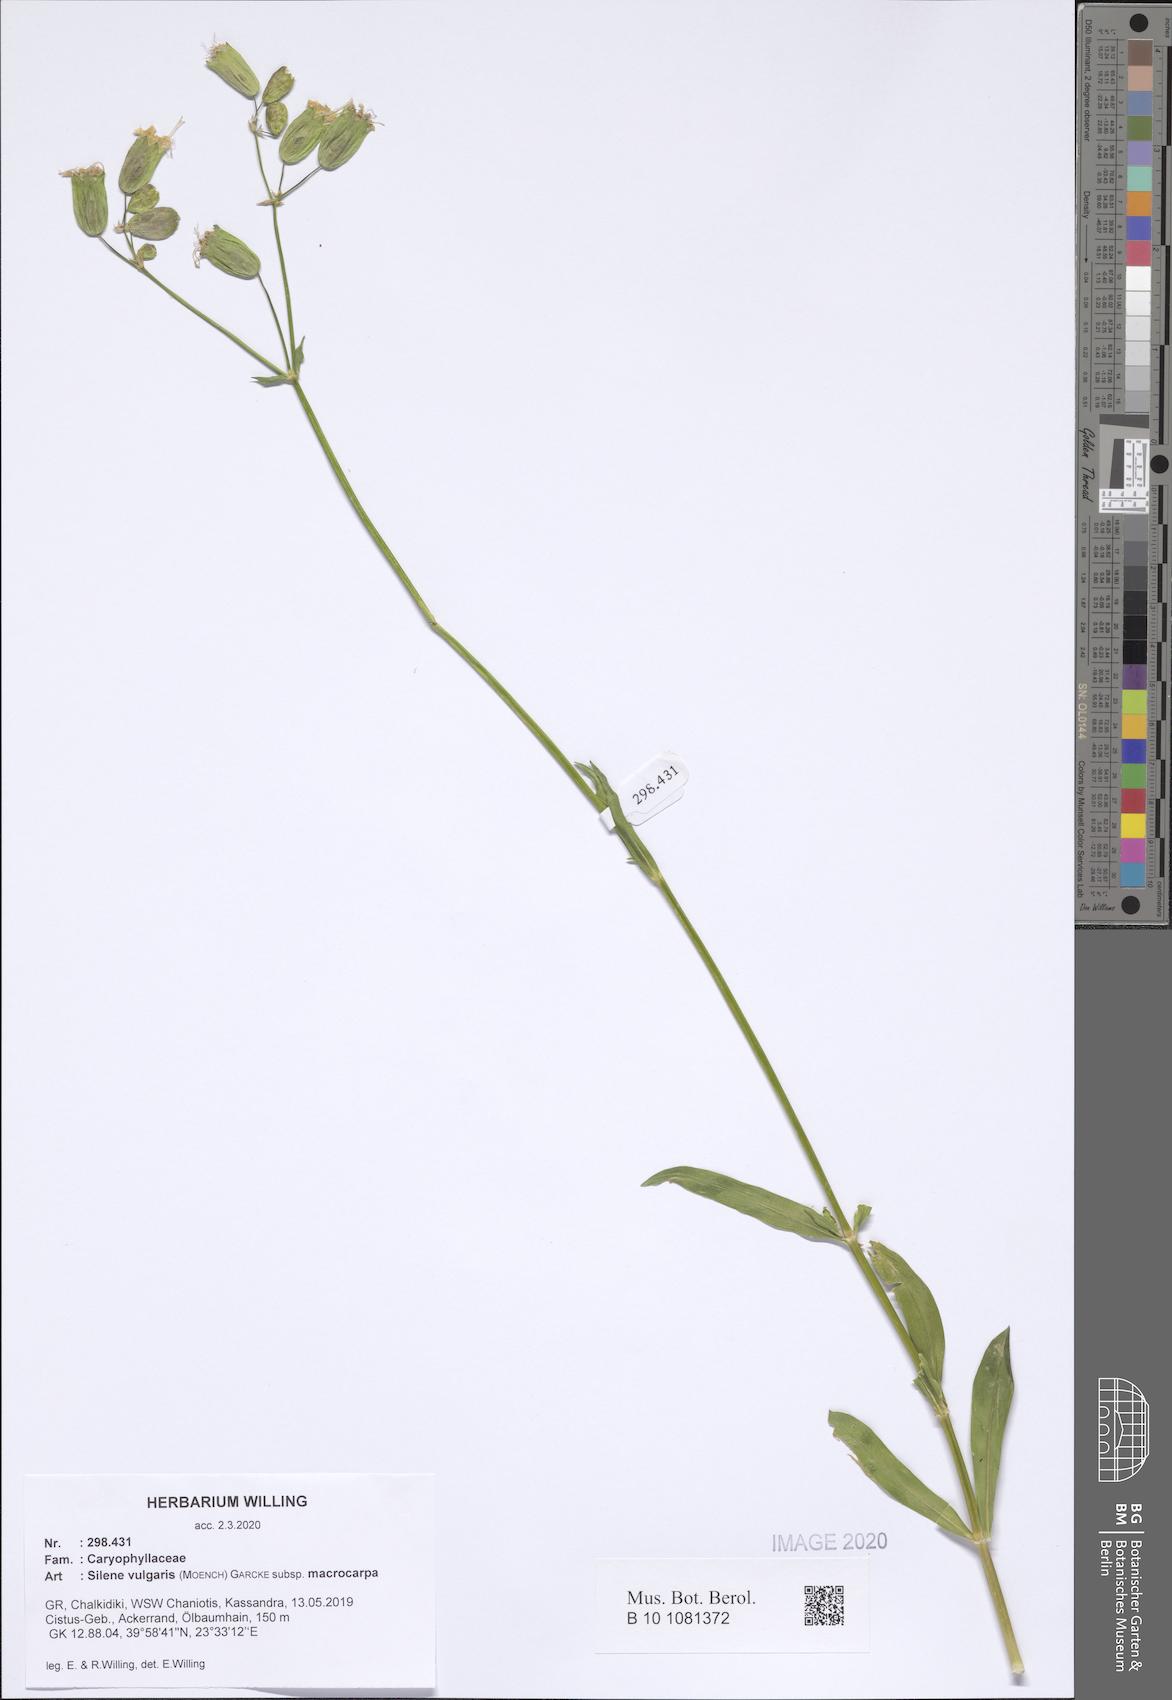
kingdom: Plantae
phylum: Tracheophyta
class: Magnoliopsida
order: Caryophyllales
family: Caryophyllaceae
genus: Silene
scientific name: Silene vulgaris
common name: Bladder campion
